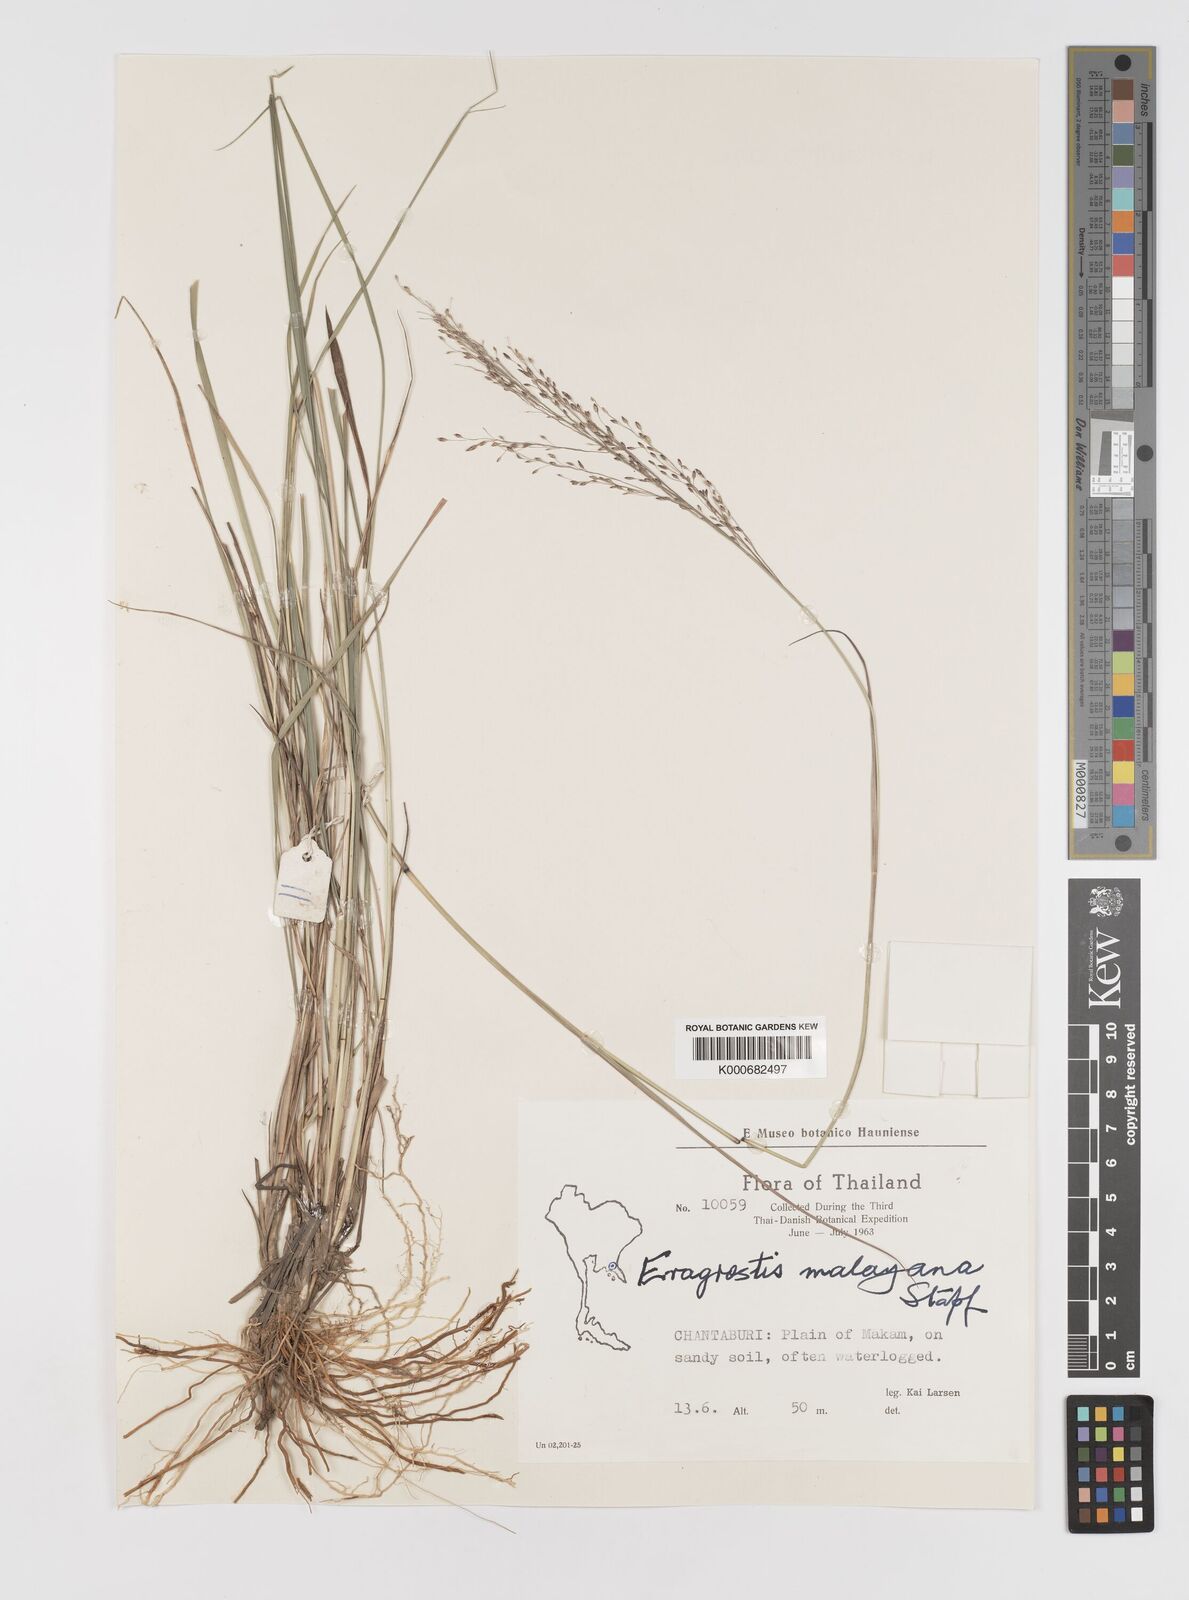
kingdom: Plantae
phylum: Tracheophyta
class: Liliopsida
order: Poales
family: Poaceae
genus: Eragrostis
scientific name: Eragrostis montana
